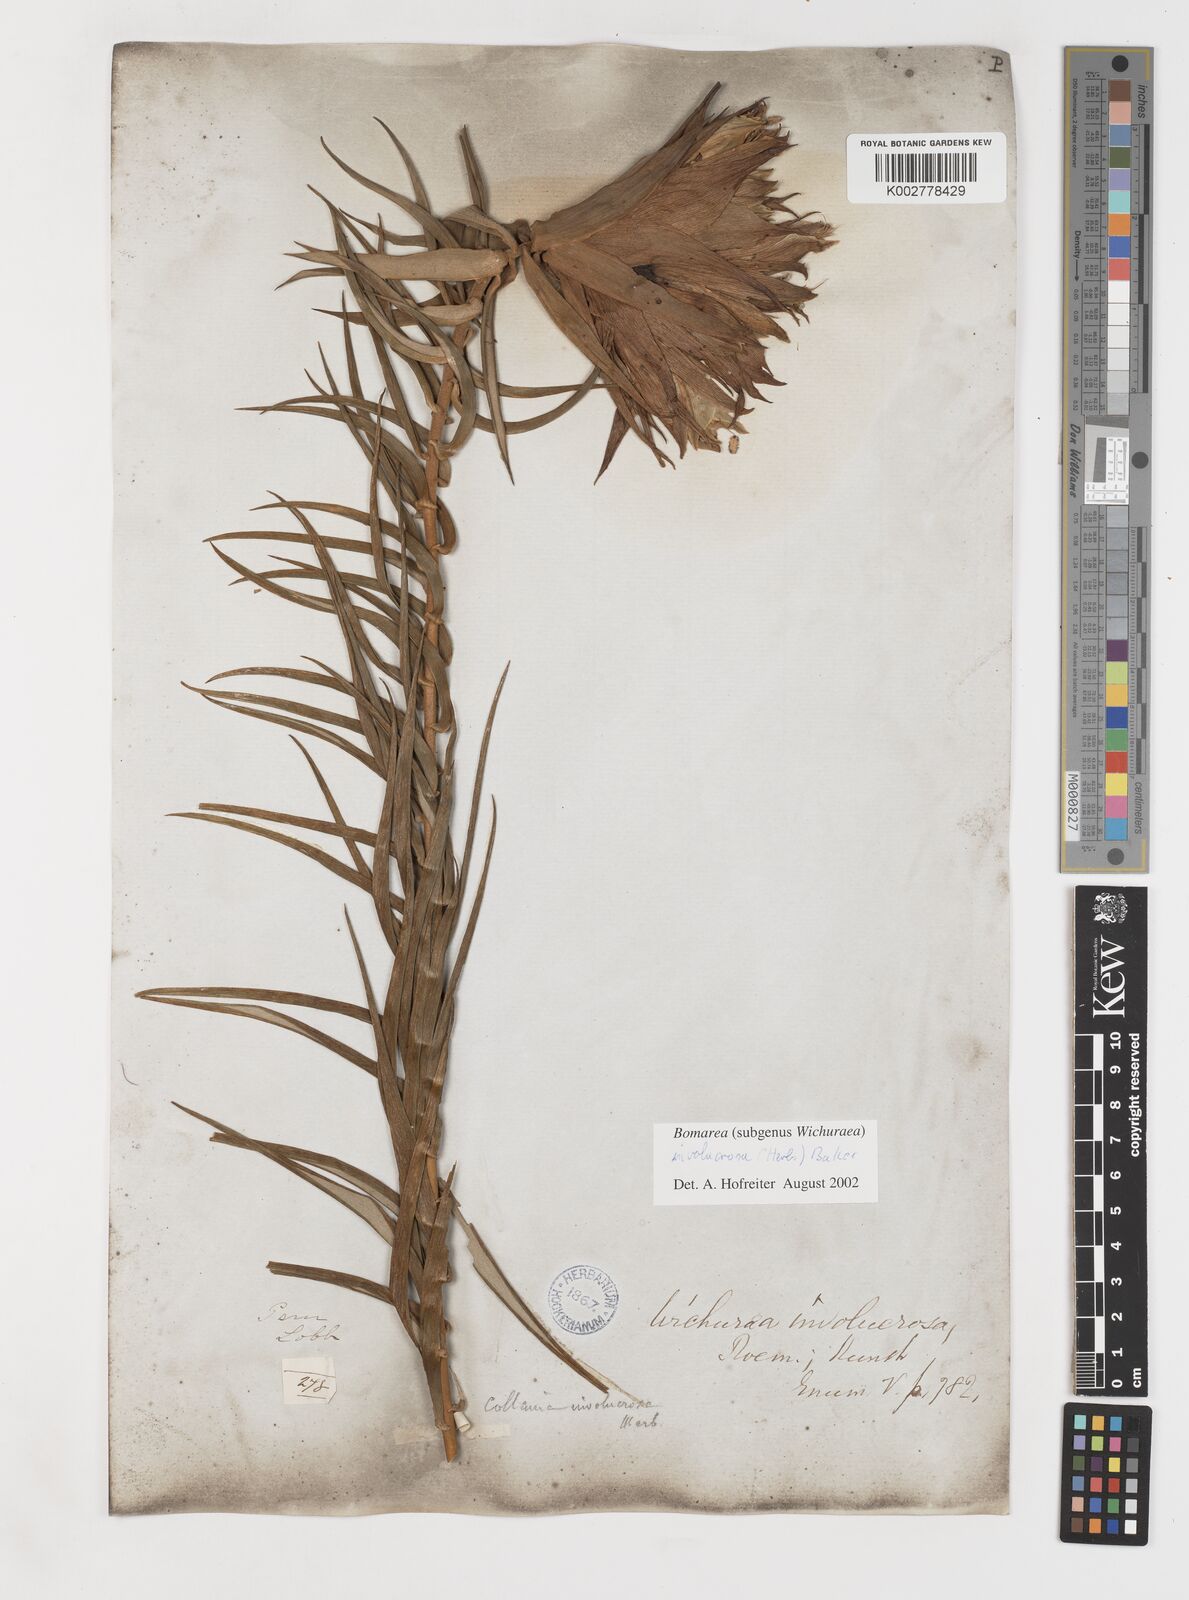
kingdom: Plantae
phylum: Tracheophyta
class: Liliopsida
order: Liliales
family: Alstroemeriaceae
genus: Bomarea
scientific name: Bomarea involucrosa
